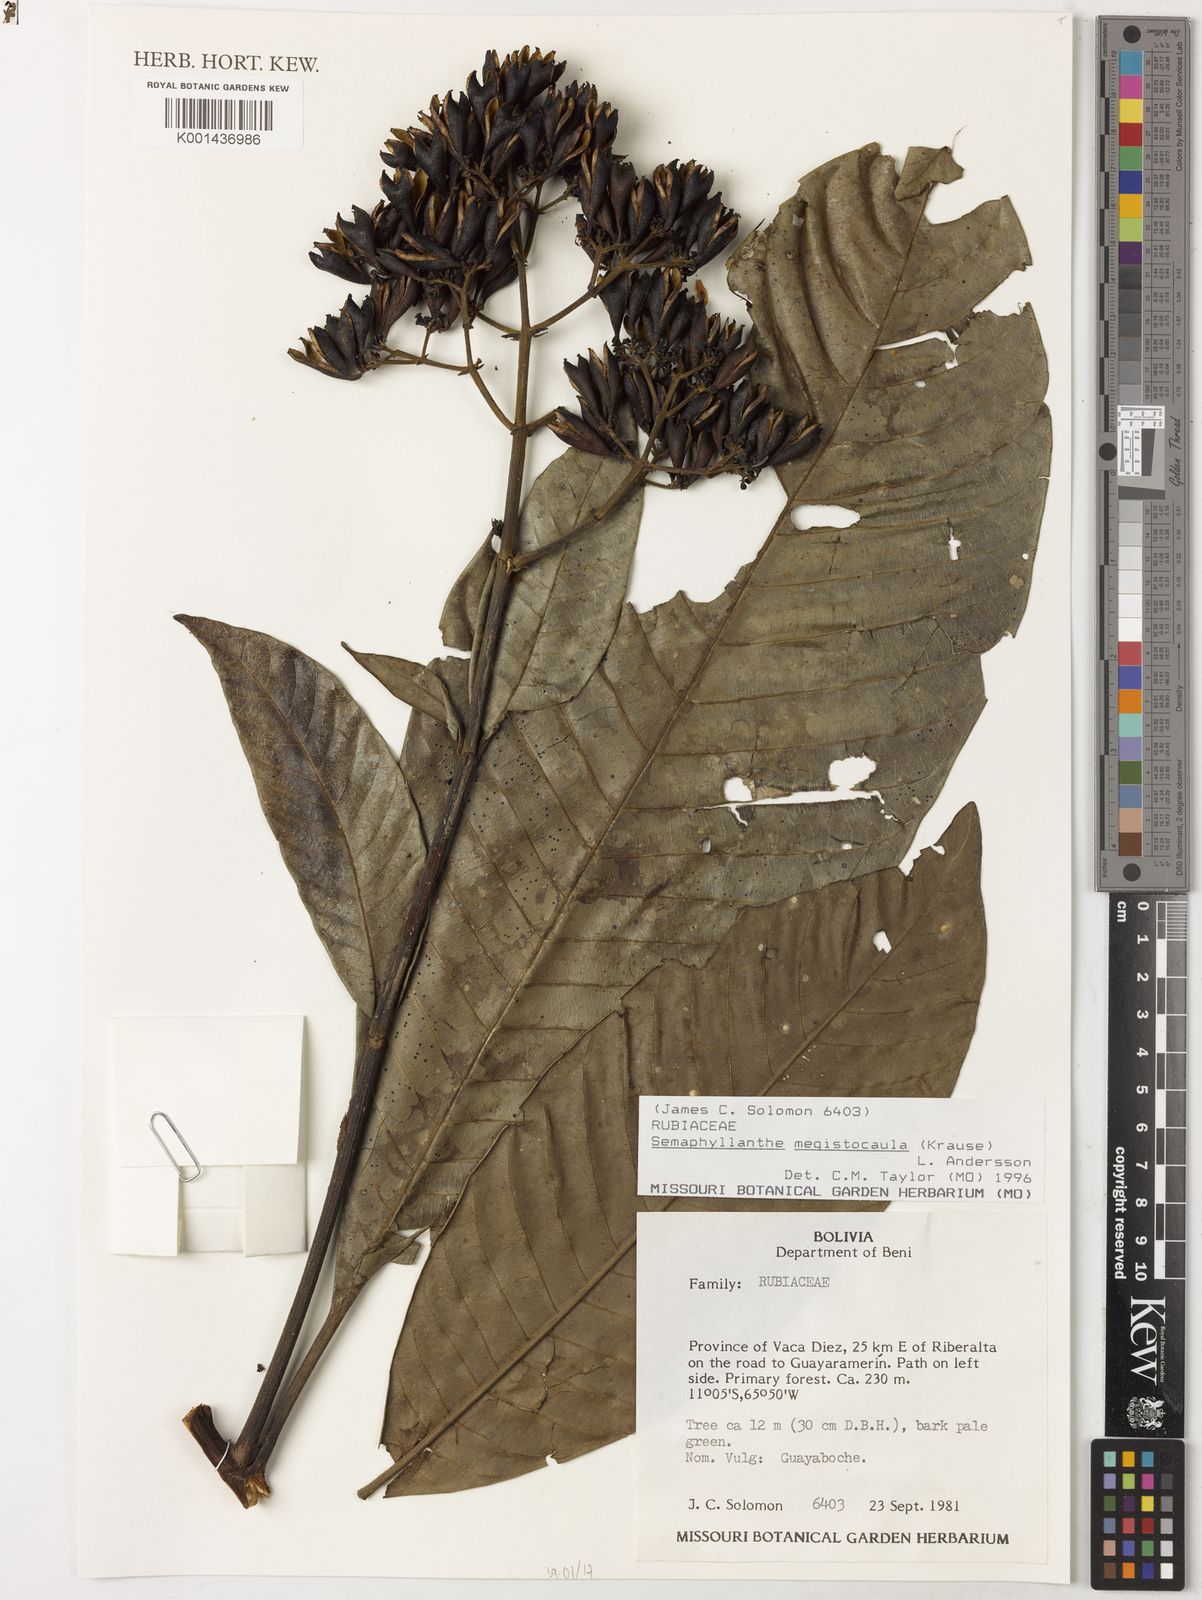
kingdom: Plantae
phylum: Tracheophyta
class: Magnoliopsida
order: Gentianales
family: Rubiaceae
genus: Calycophyllum
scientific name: Calycophyllum
